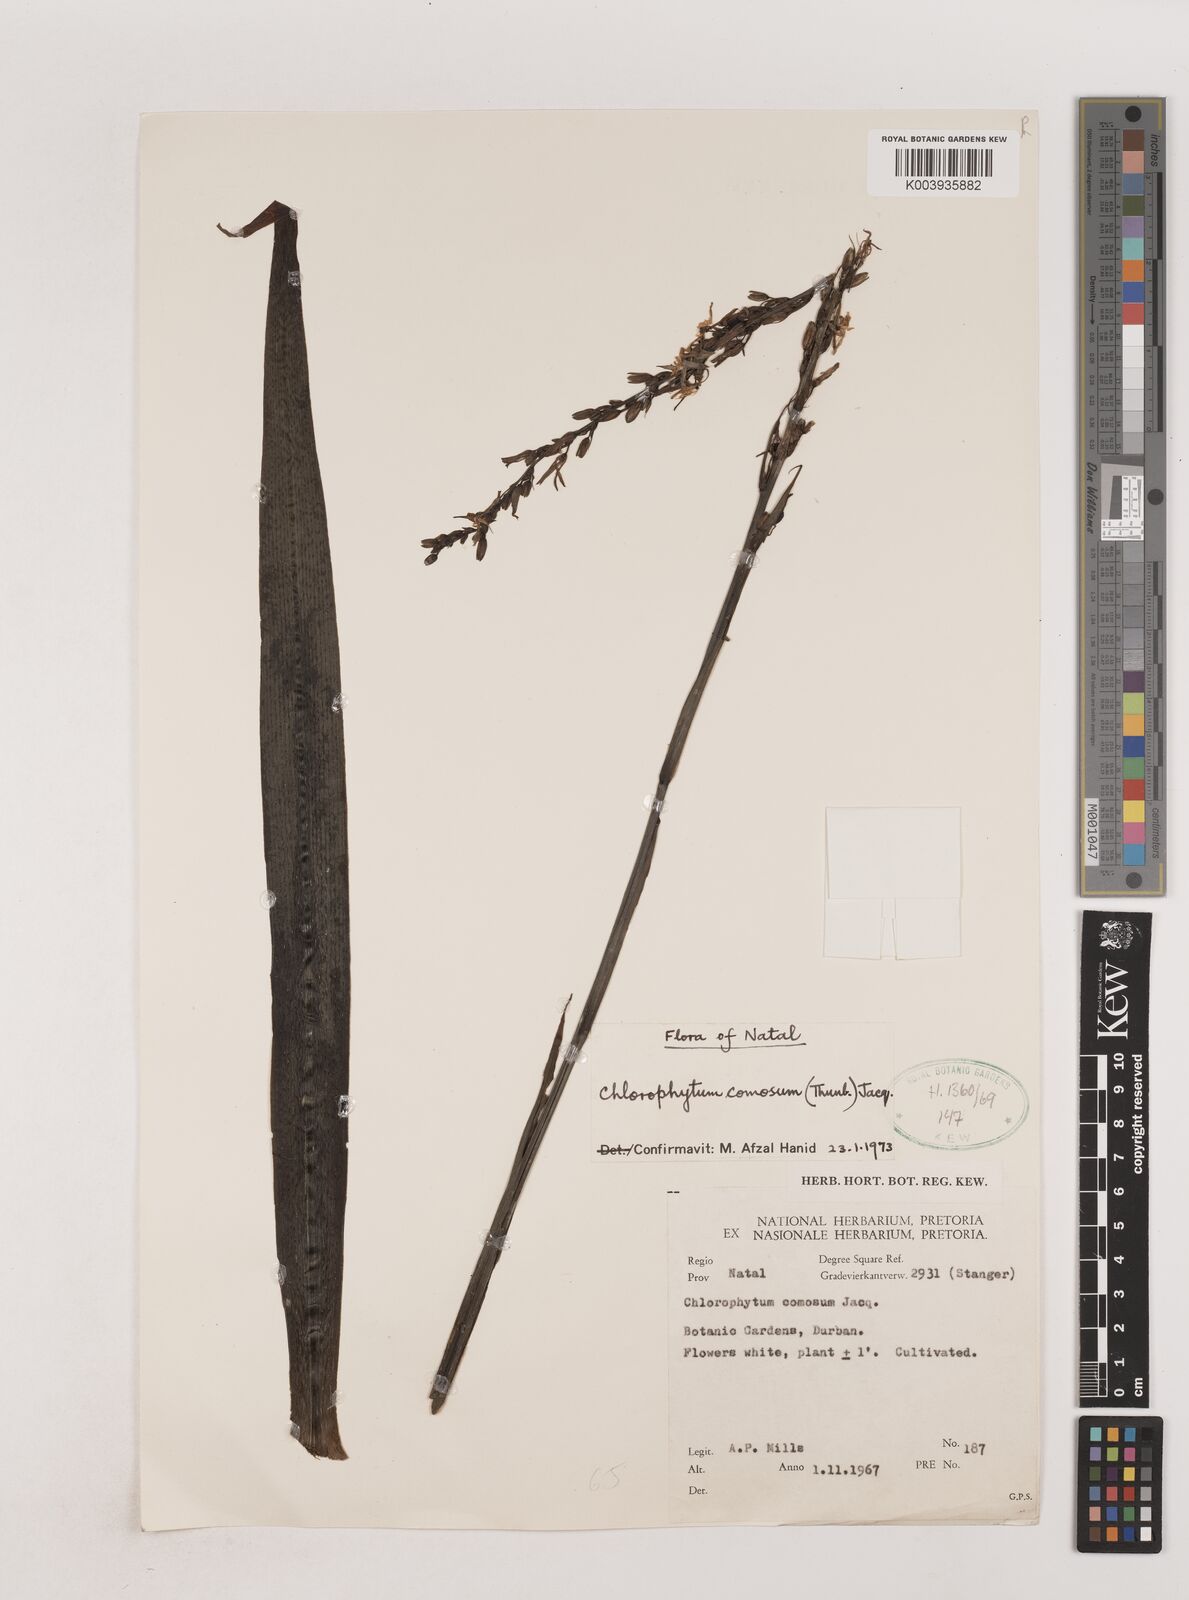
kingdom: Plantae
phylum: Tracheophyta
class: Liliopsida
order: Asparagales
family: Asparagaceae
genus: Chlorophytum
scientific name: Chlorophytum comosum
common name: Spider plant
